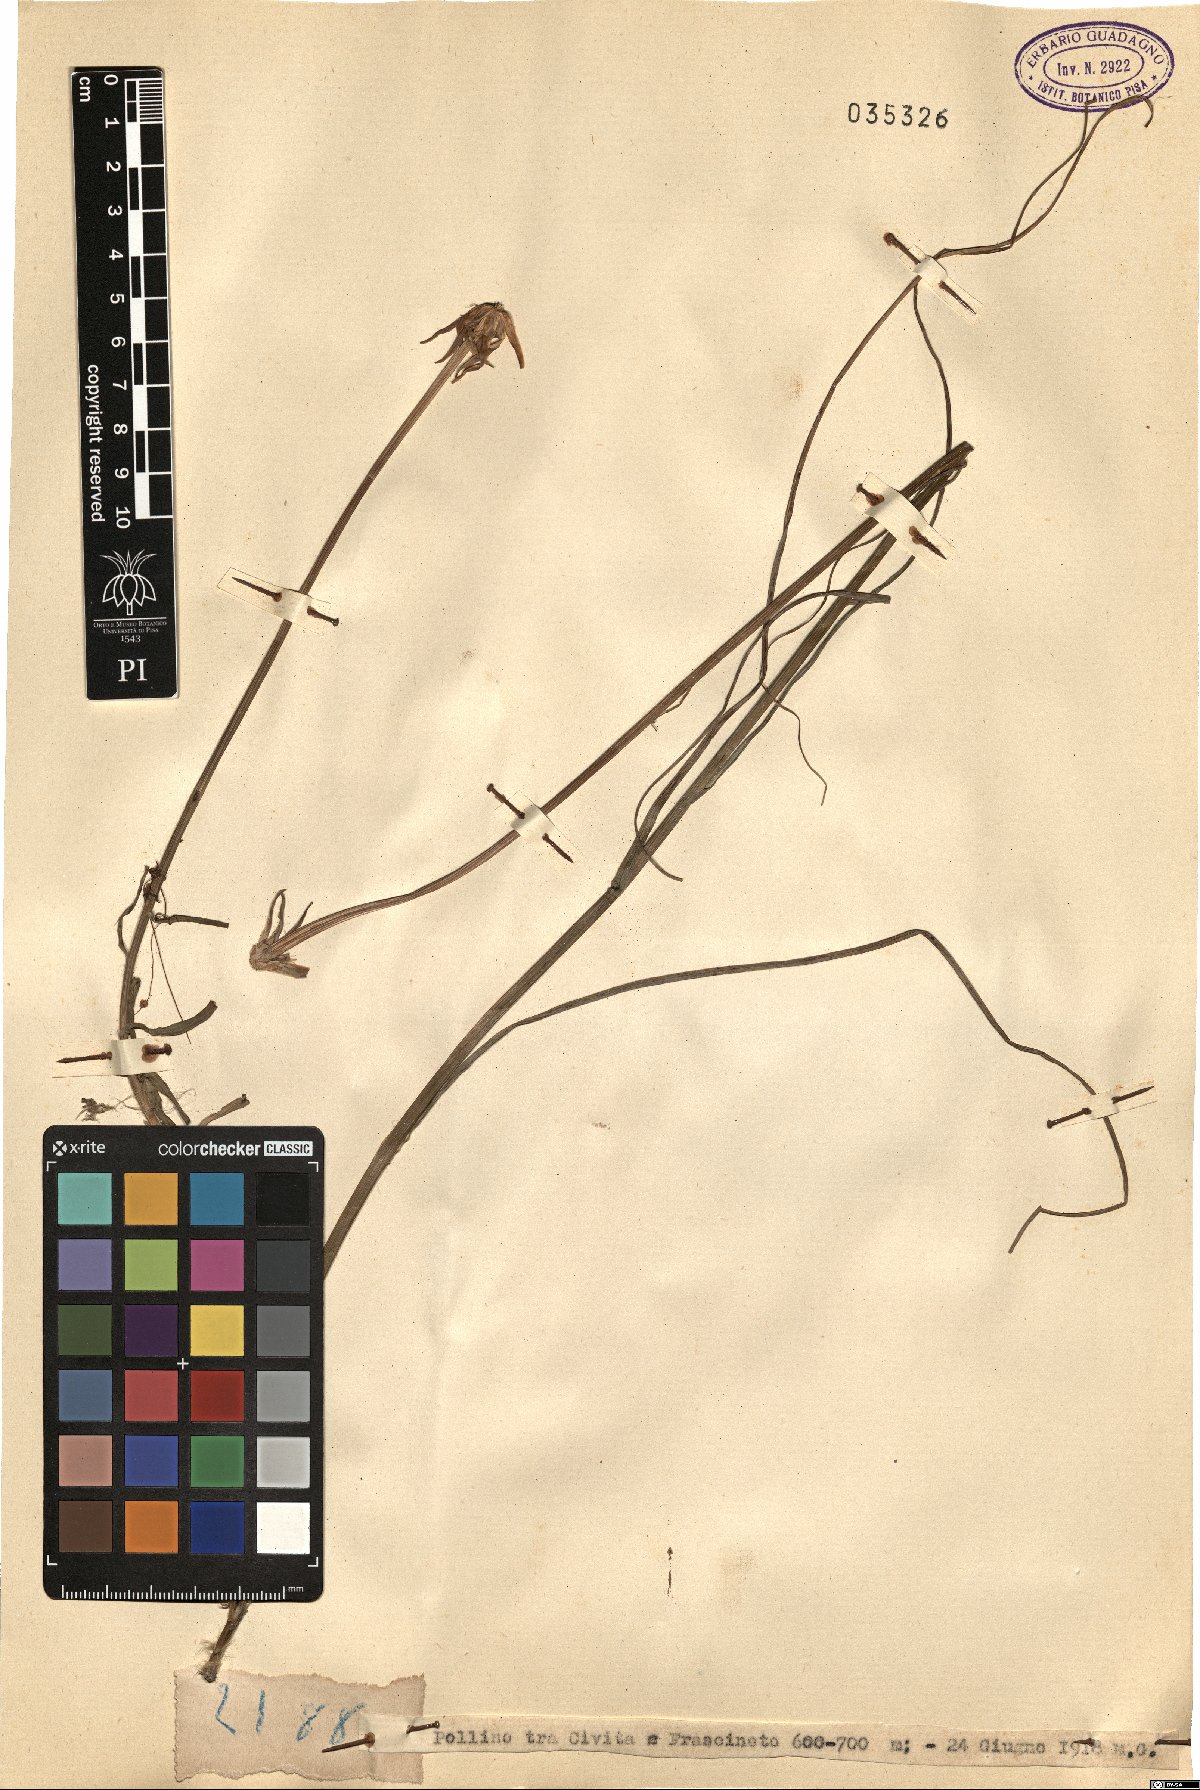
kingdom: Plantae
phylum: Tracheophyta
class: Magnoliopsida
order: Asterales
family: Asteraceae
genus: Geropogon
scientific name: Geropogon
